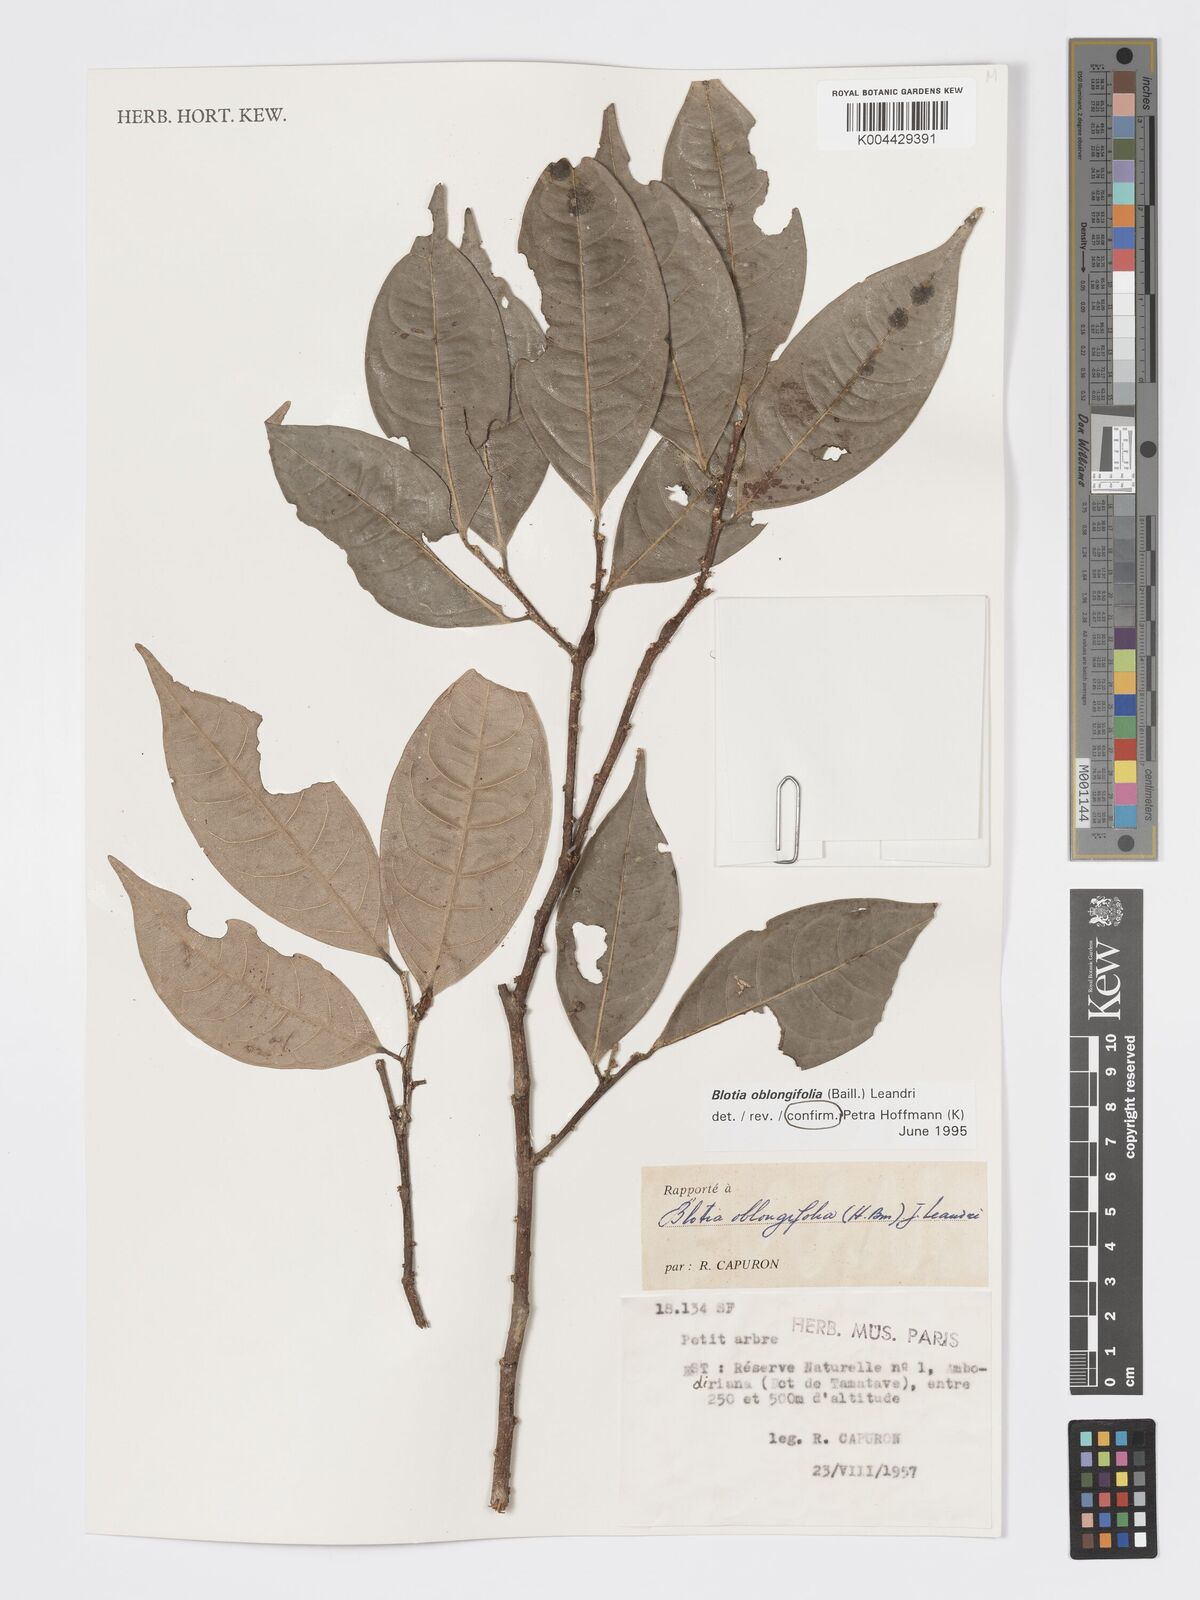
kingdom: Plantae
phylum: Tracheophyta
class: Magnoliopsida
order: Malpighiales
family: Phyllanthaceae
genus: Wielandia
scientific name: Wielandia oblongifolia
